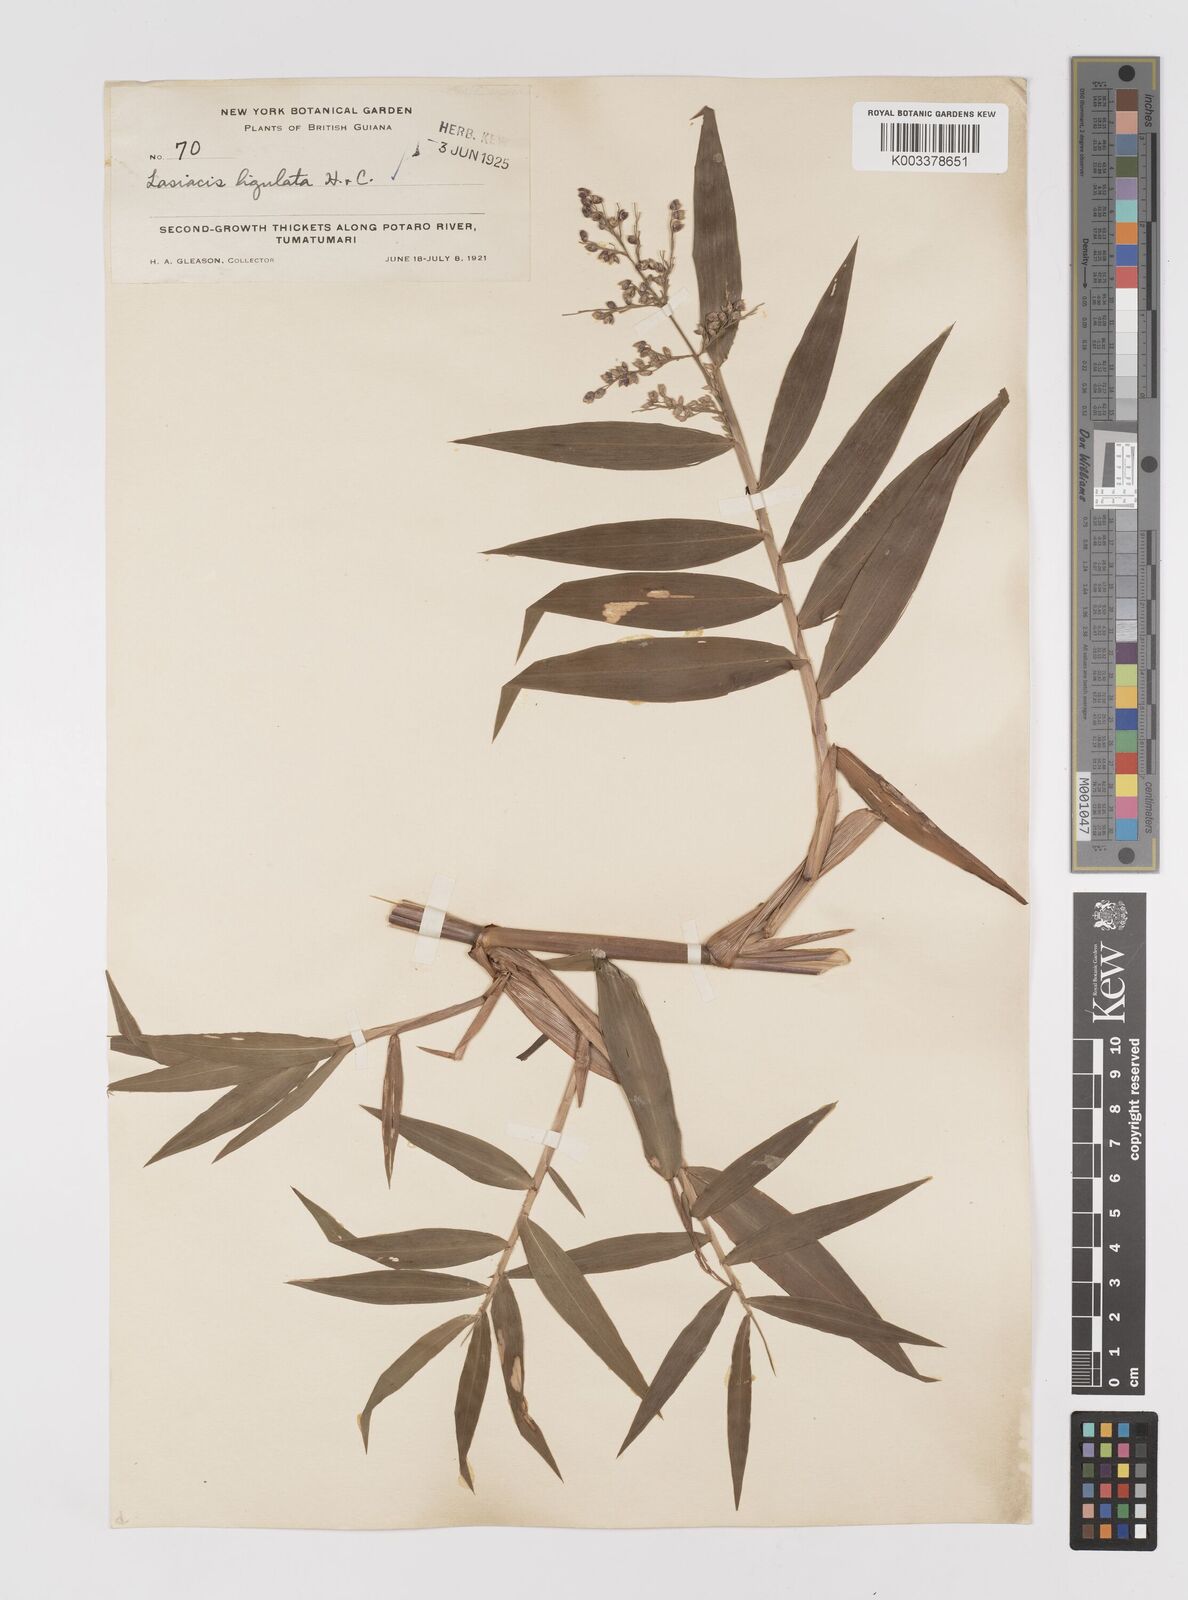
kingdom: Plantae
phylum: Tracheophyta
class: Liliopsida
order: Poales
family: Poaceae
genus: Lasiacis
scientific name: Lasiacis ligulata
